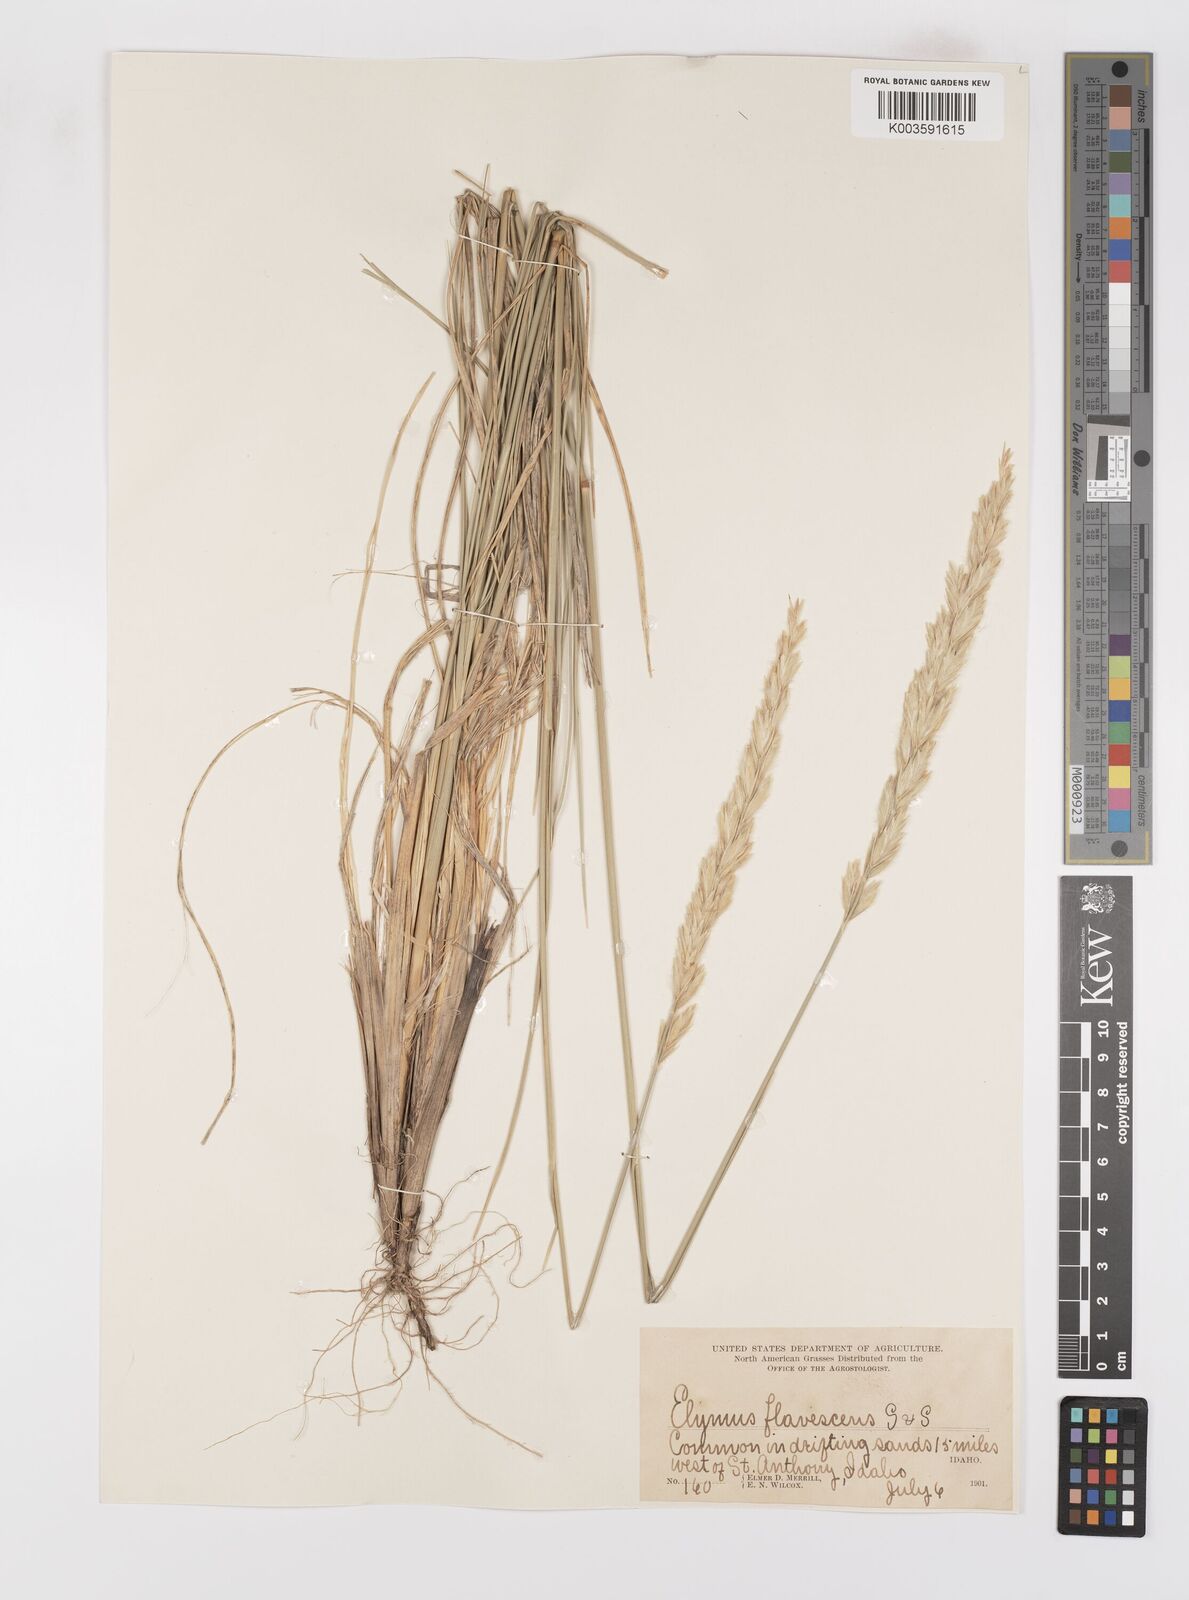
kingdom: Plantae
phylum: Tracheophyta
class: Liliopsida
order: Poales
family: Poaceae
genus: Leymus
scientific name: Leymus flavescens
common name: Yellow wild rye
